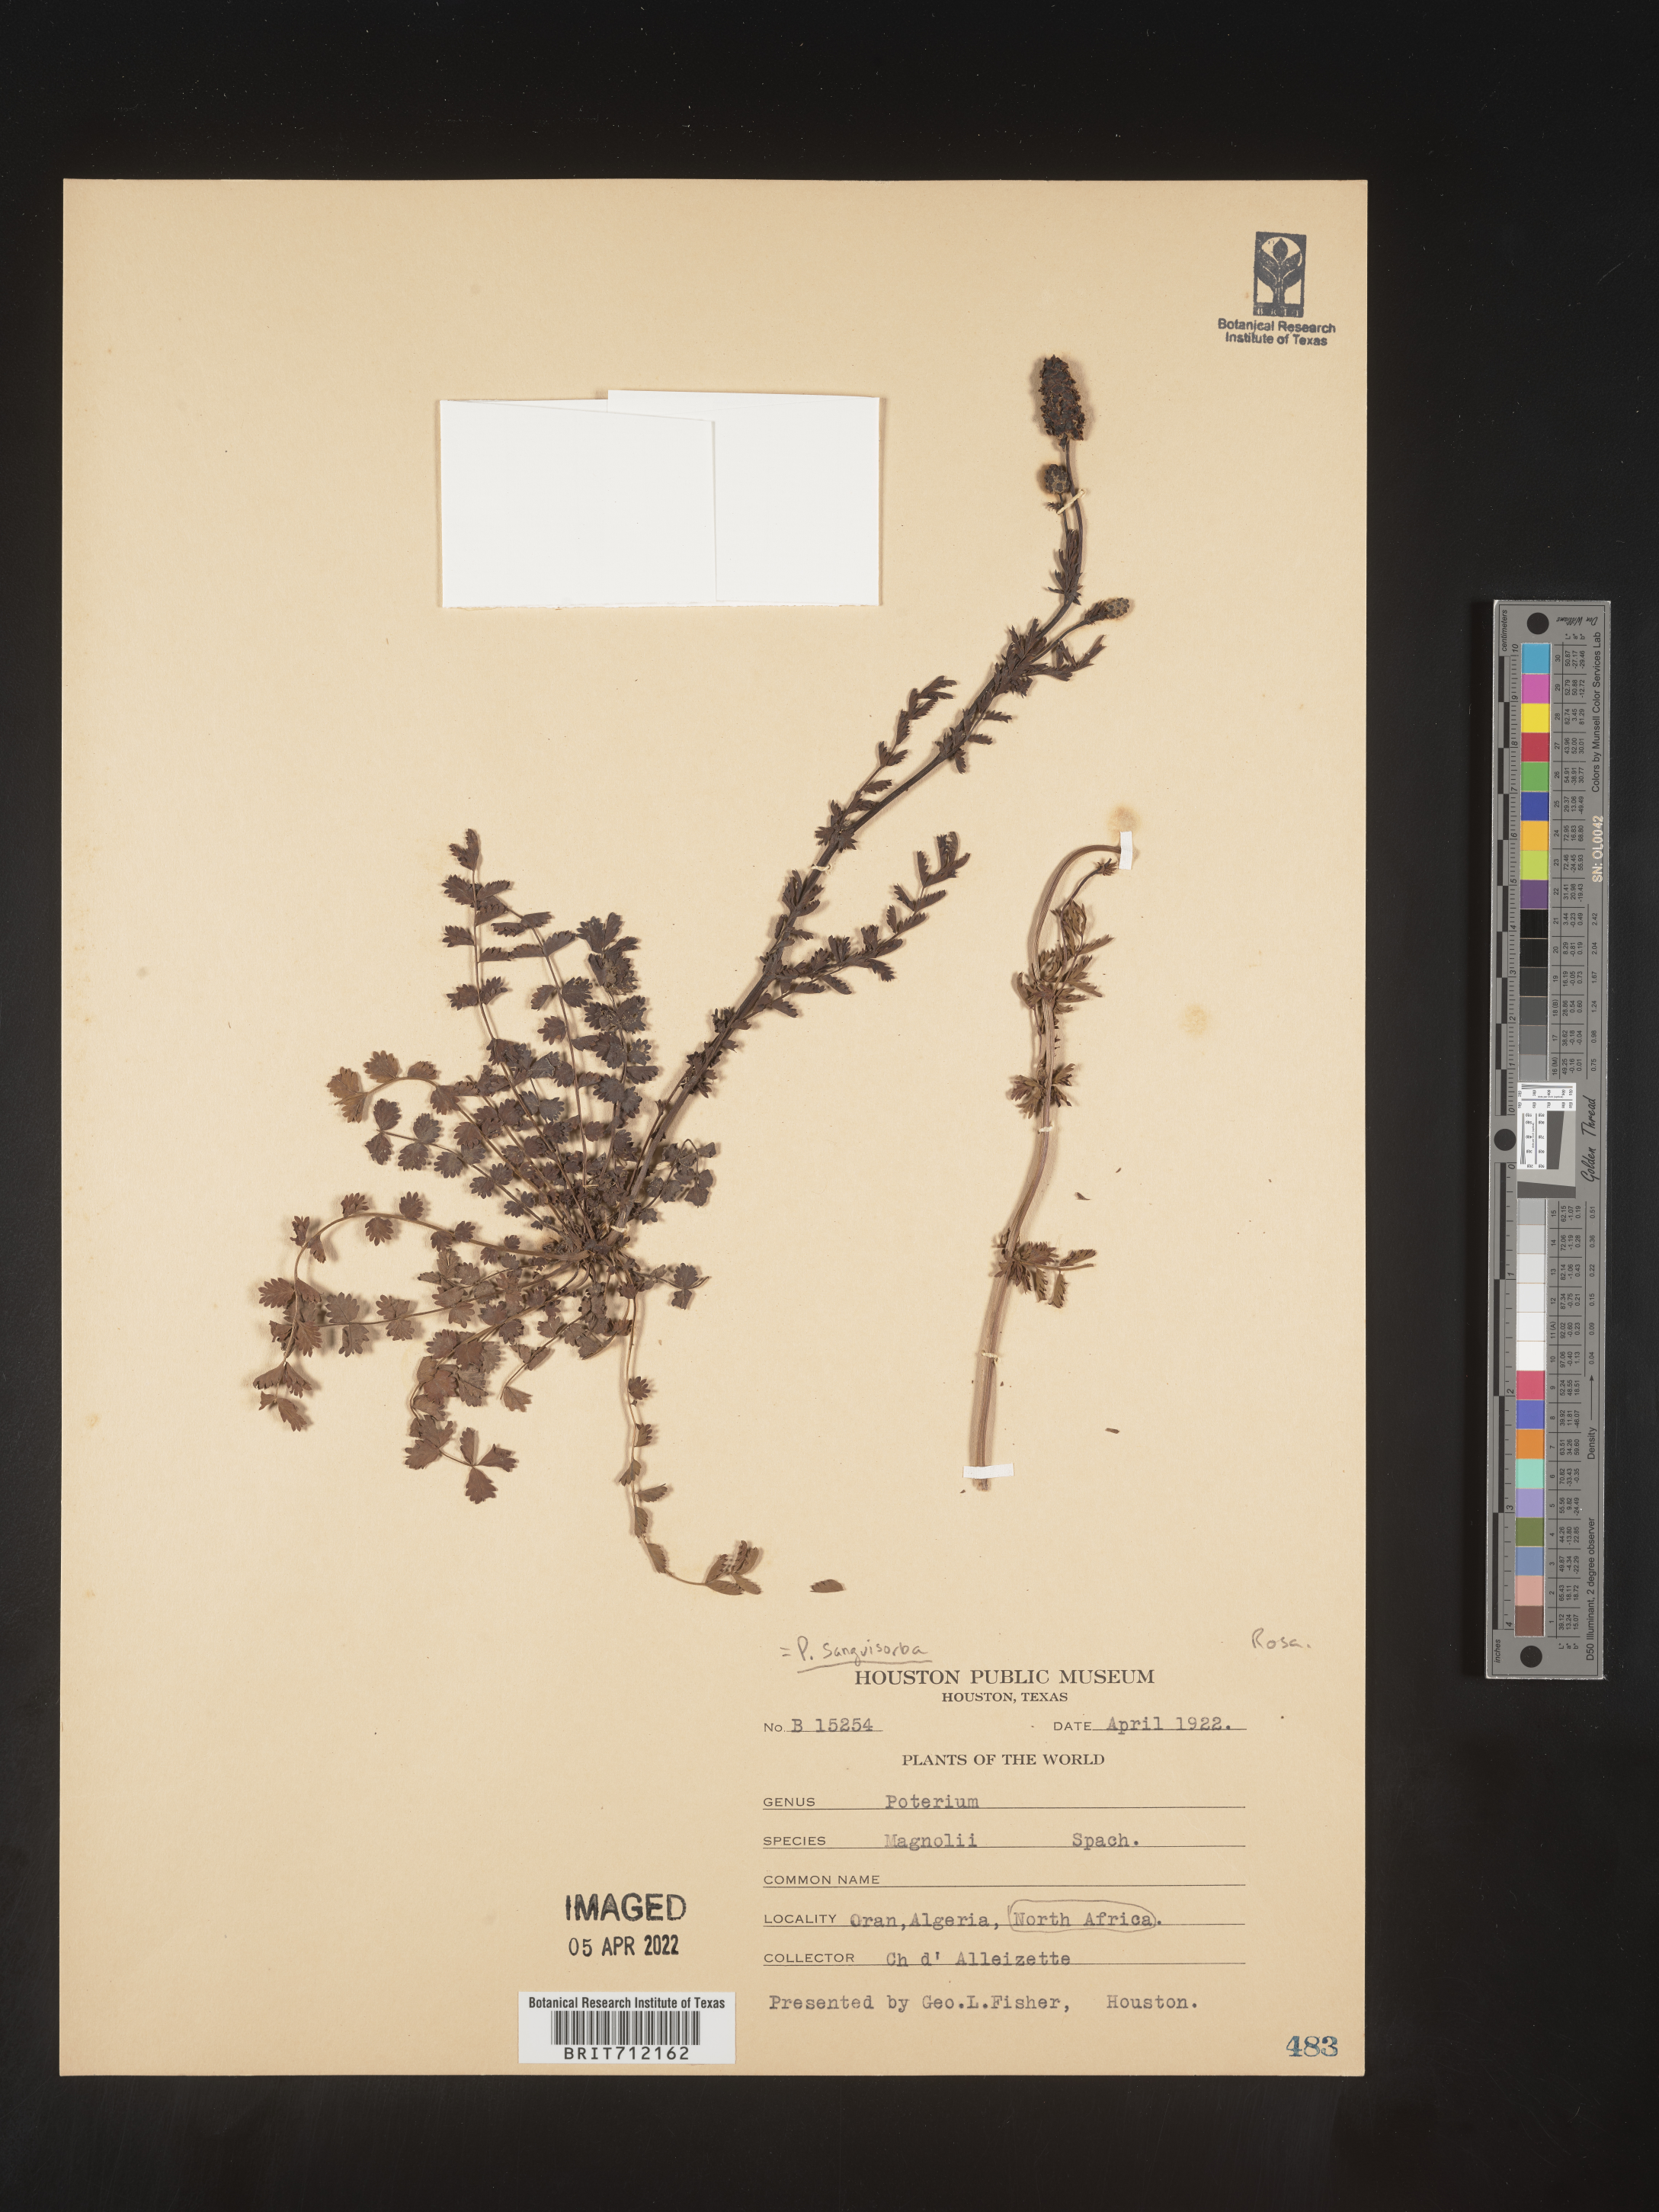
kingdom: Plantae
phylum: Tracheophyta
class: Magnoliopsida
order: Rosales
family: Rosaceae
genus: Poterium
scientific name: Poterium
